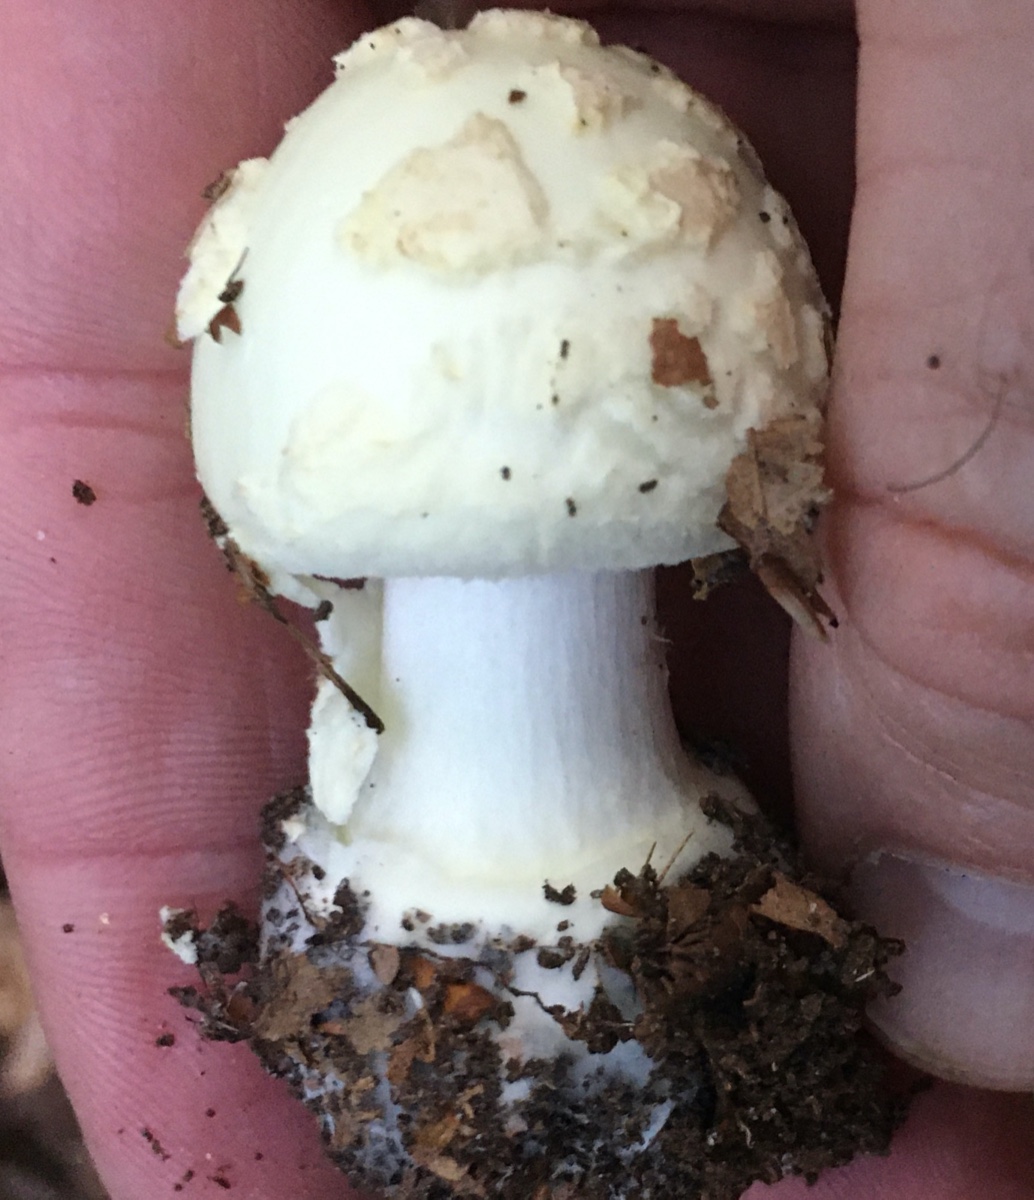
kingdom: Fungi
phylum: Basidiomycota
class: Agaricomycetes
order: Agaricales
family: Amanitaceae
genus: Amanita
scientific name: Amanita citrina
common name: kugleknoldet fluesvamp
